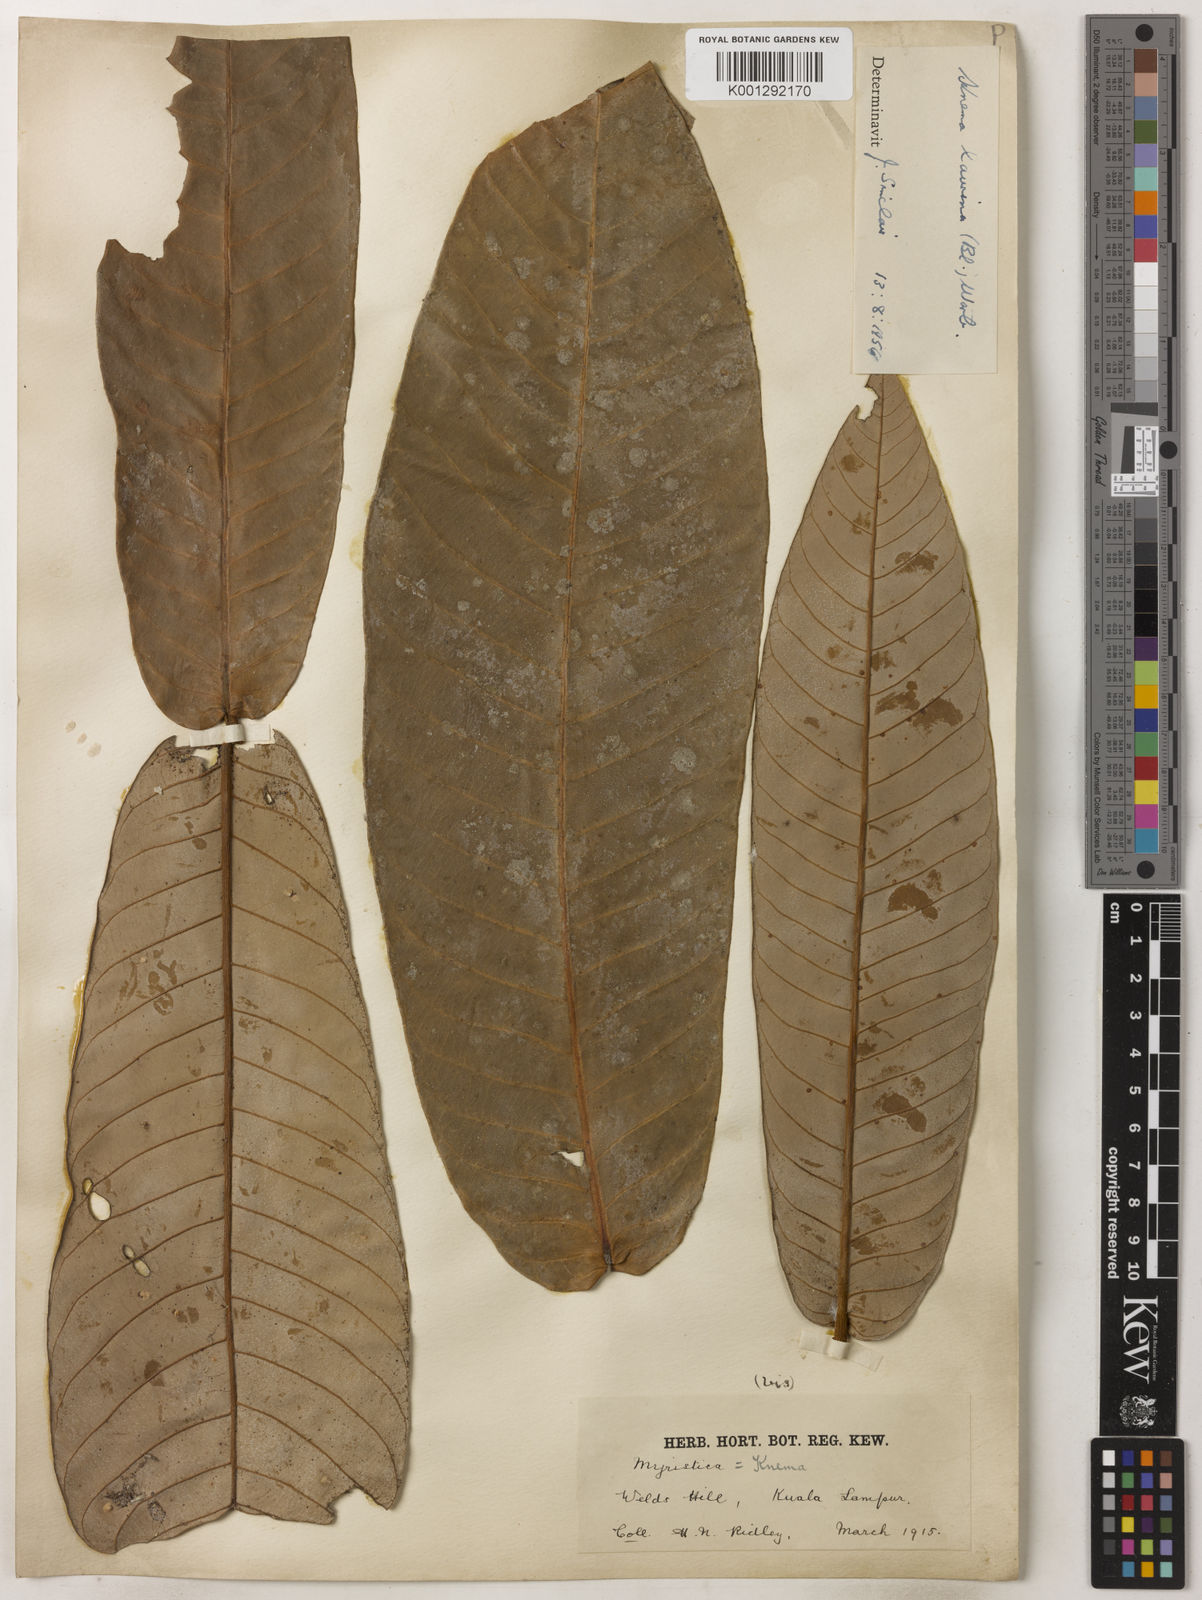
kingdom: Plantae
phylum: Tracheophyta
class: Magnoliopsida
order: Magnoliales
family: Myristicaceae
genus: Knema
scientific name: Knema laurina
